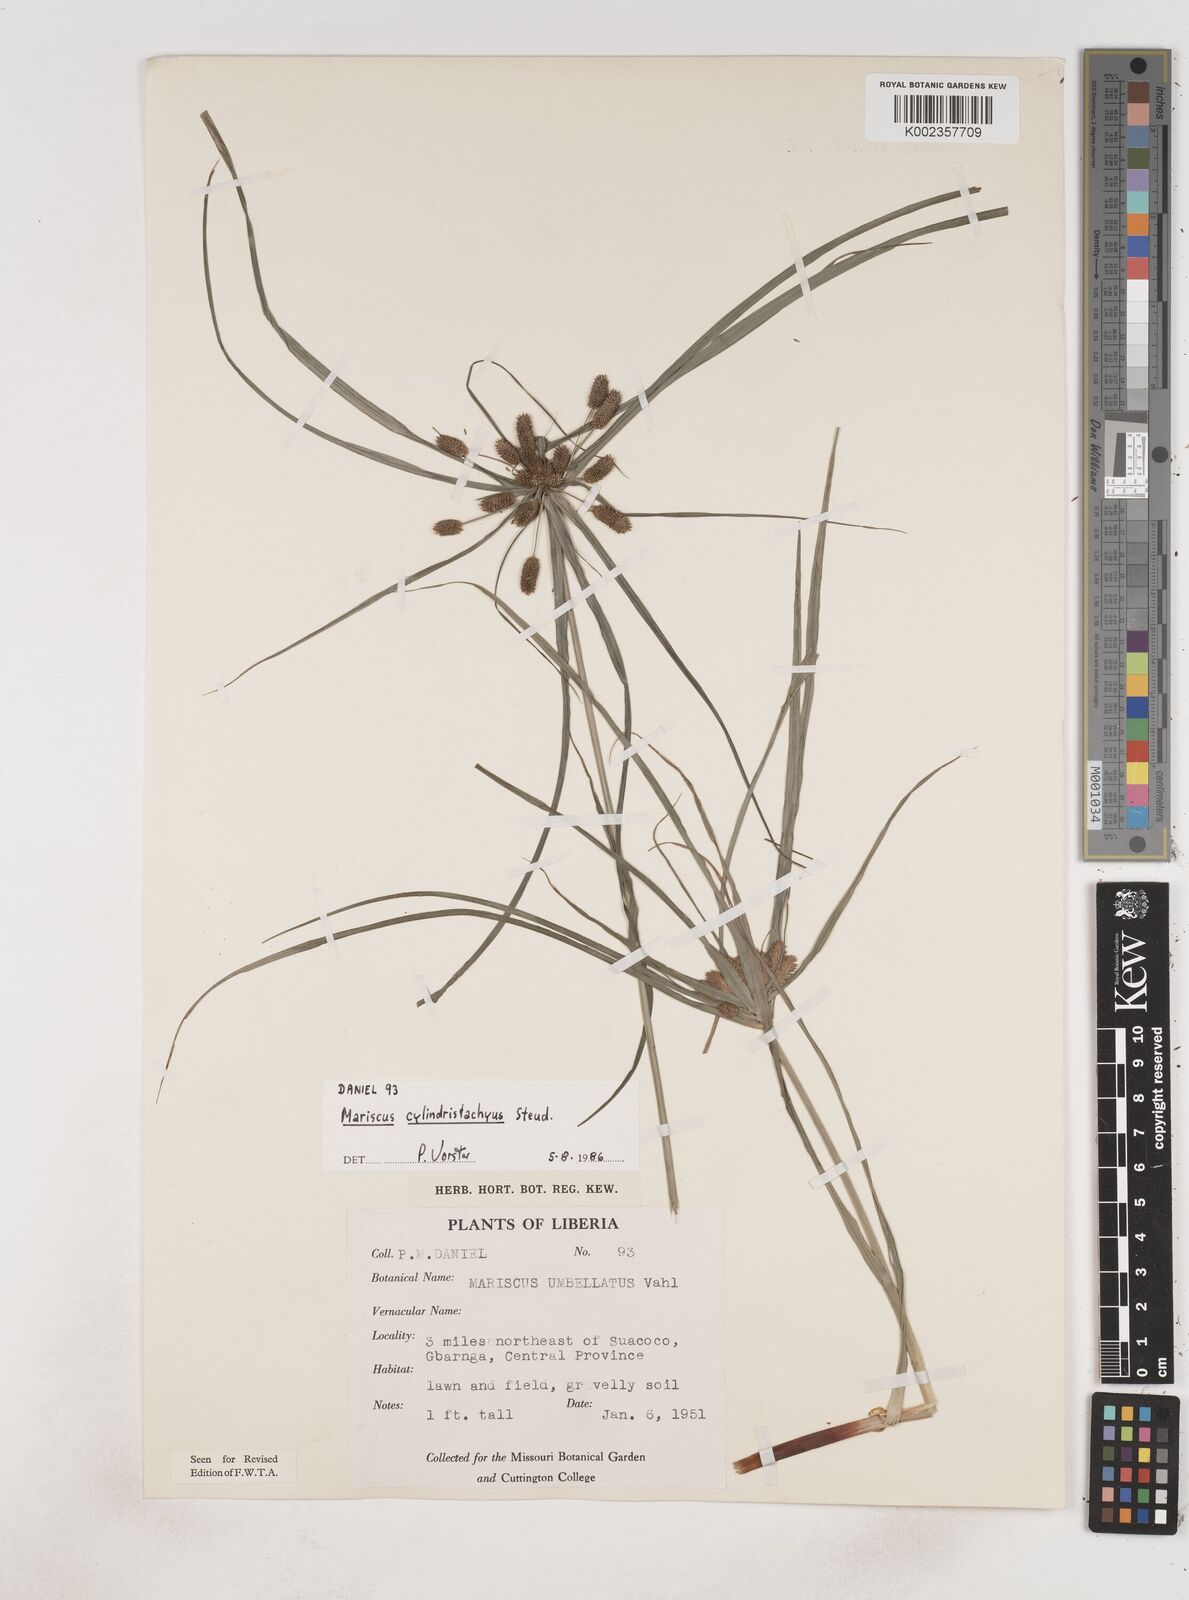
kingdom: Plantae
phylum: Tracheophyta
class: Liliopsida
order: Poales
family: Cyperaceae
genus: Cyperus
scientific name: Cyperus sublimis
